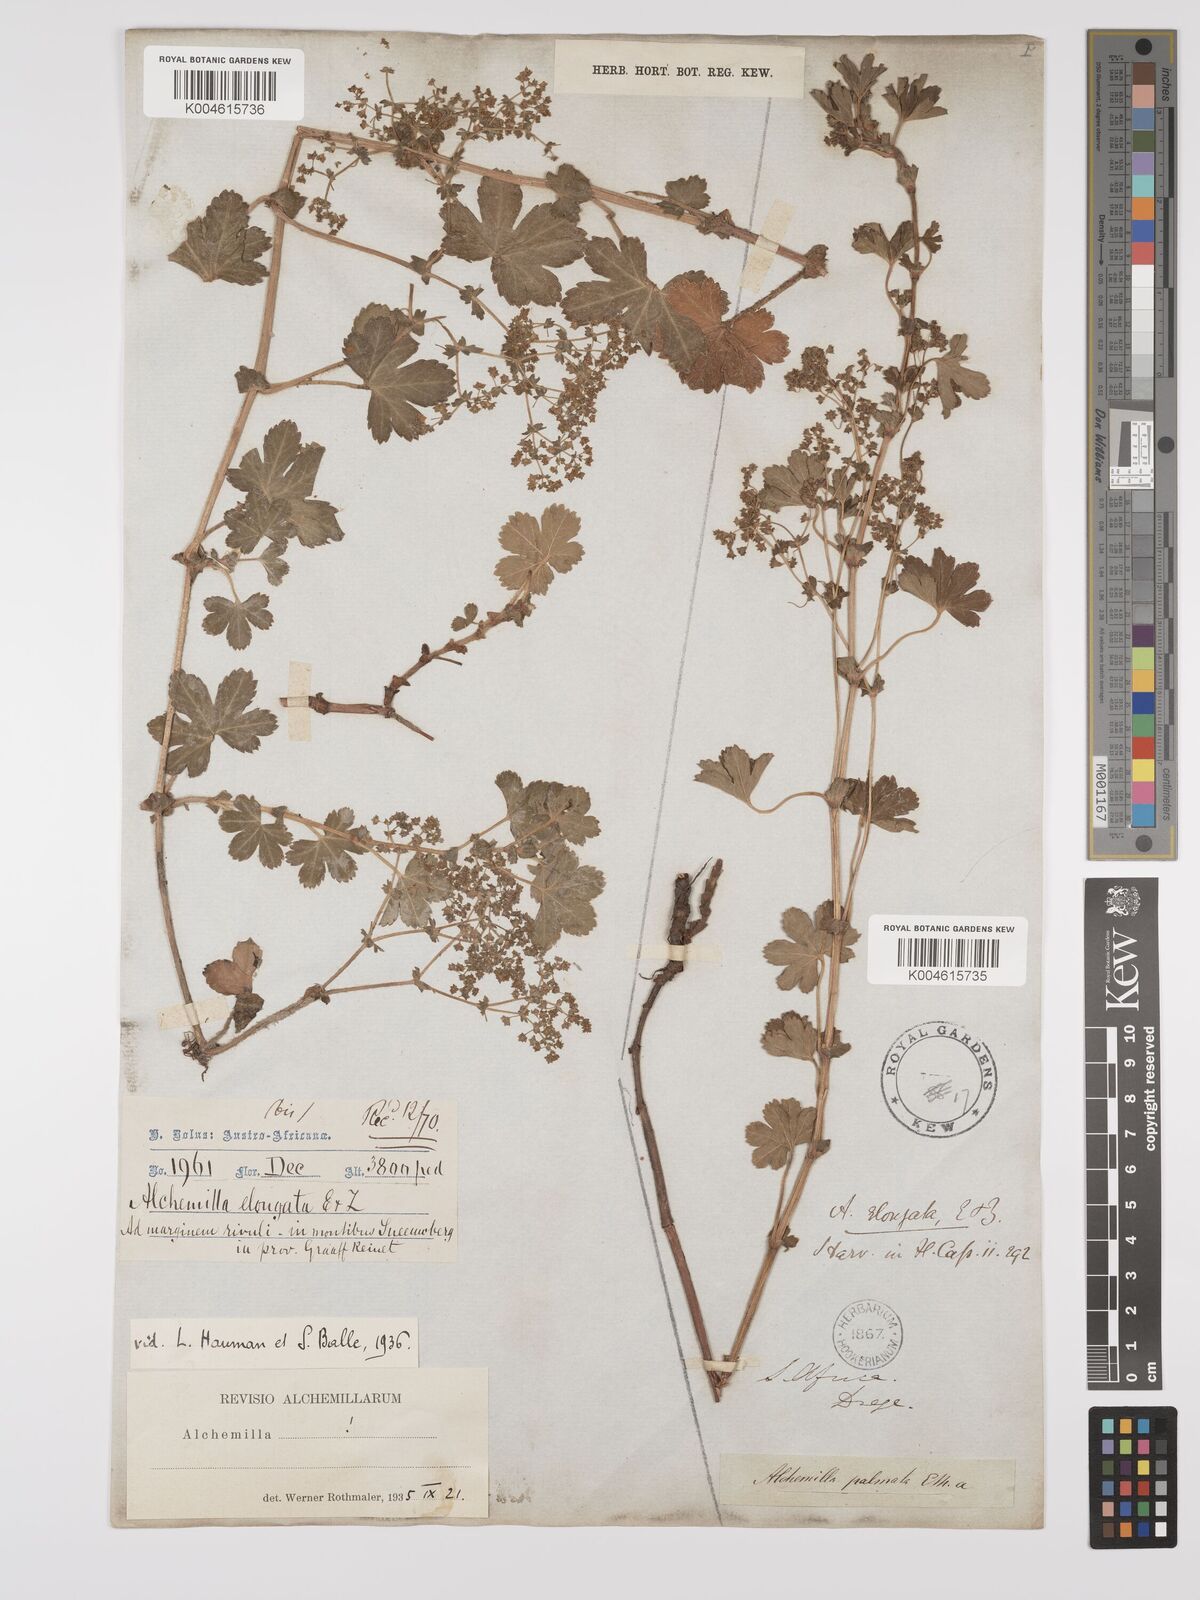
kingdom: Plantae
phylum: Tracheophyta
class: Magnoliopsida
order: Rosales
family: Rosaceae
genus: Alchemilla
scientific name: Alchemilla elongata
